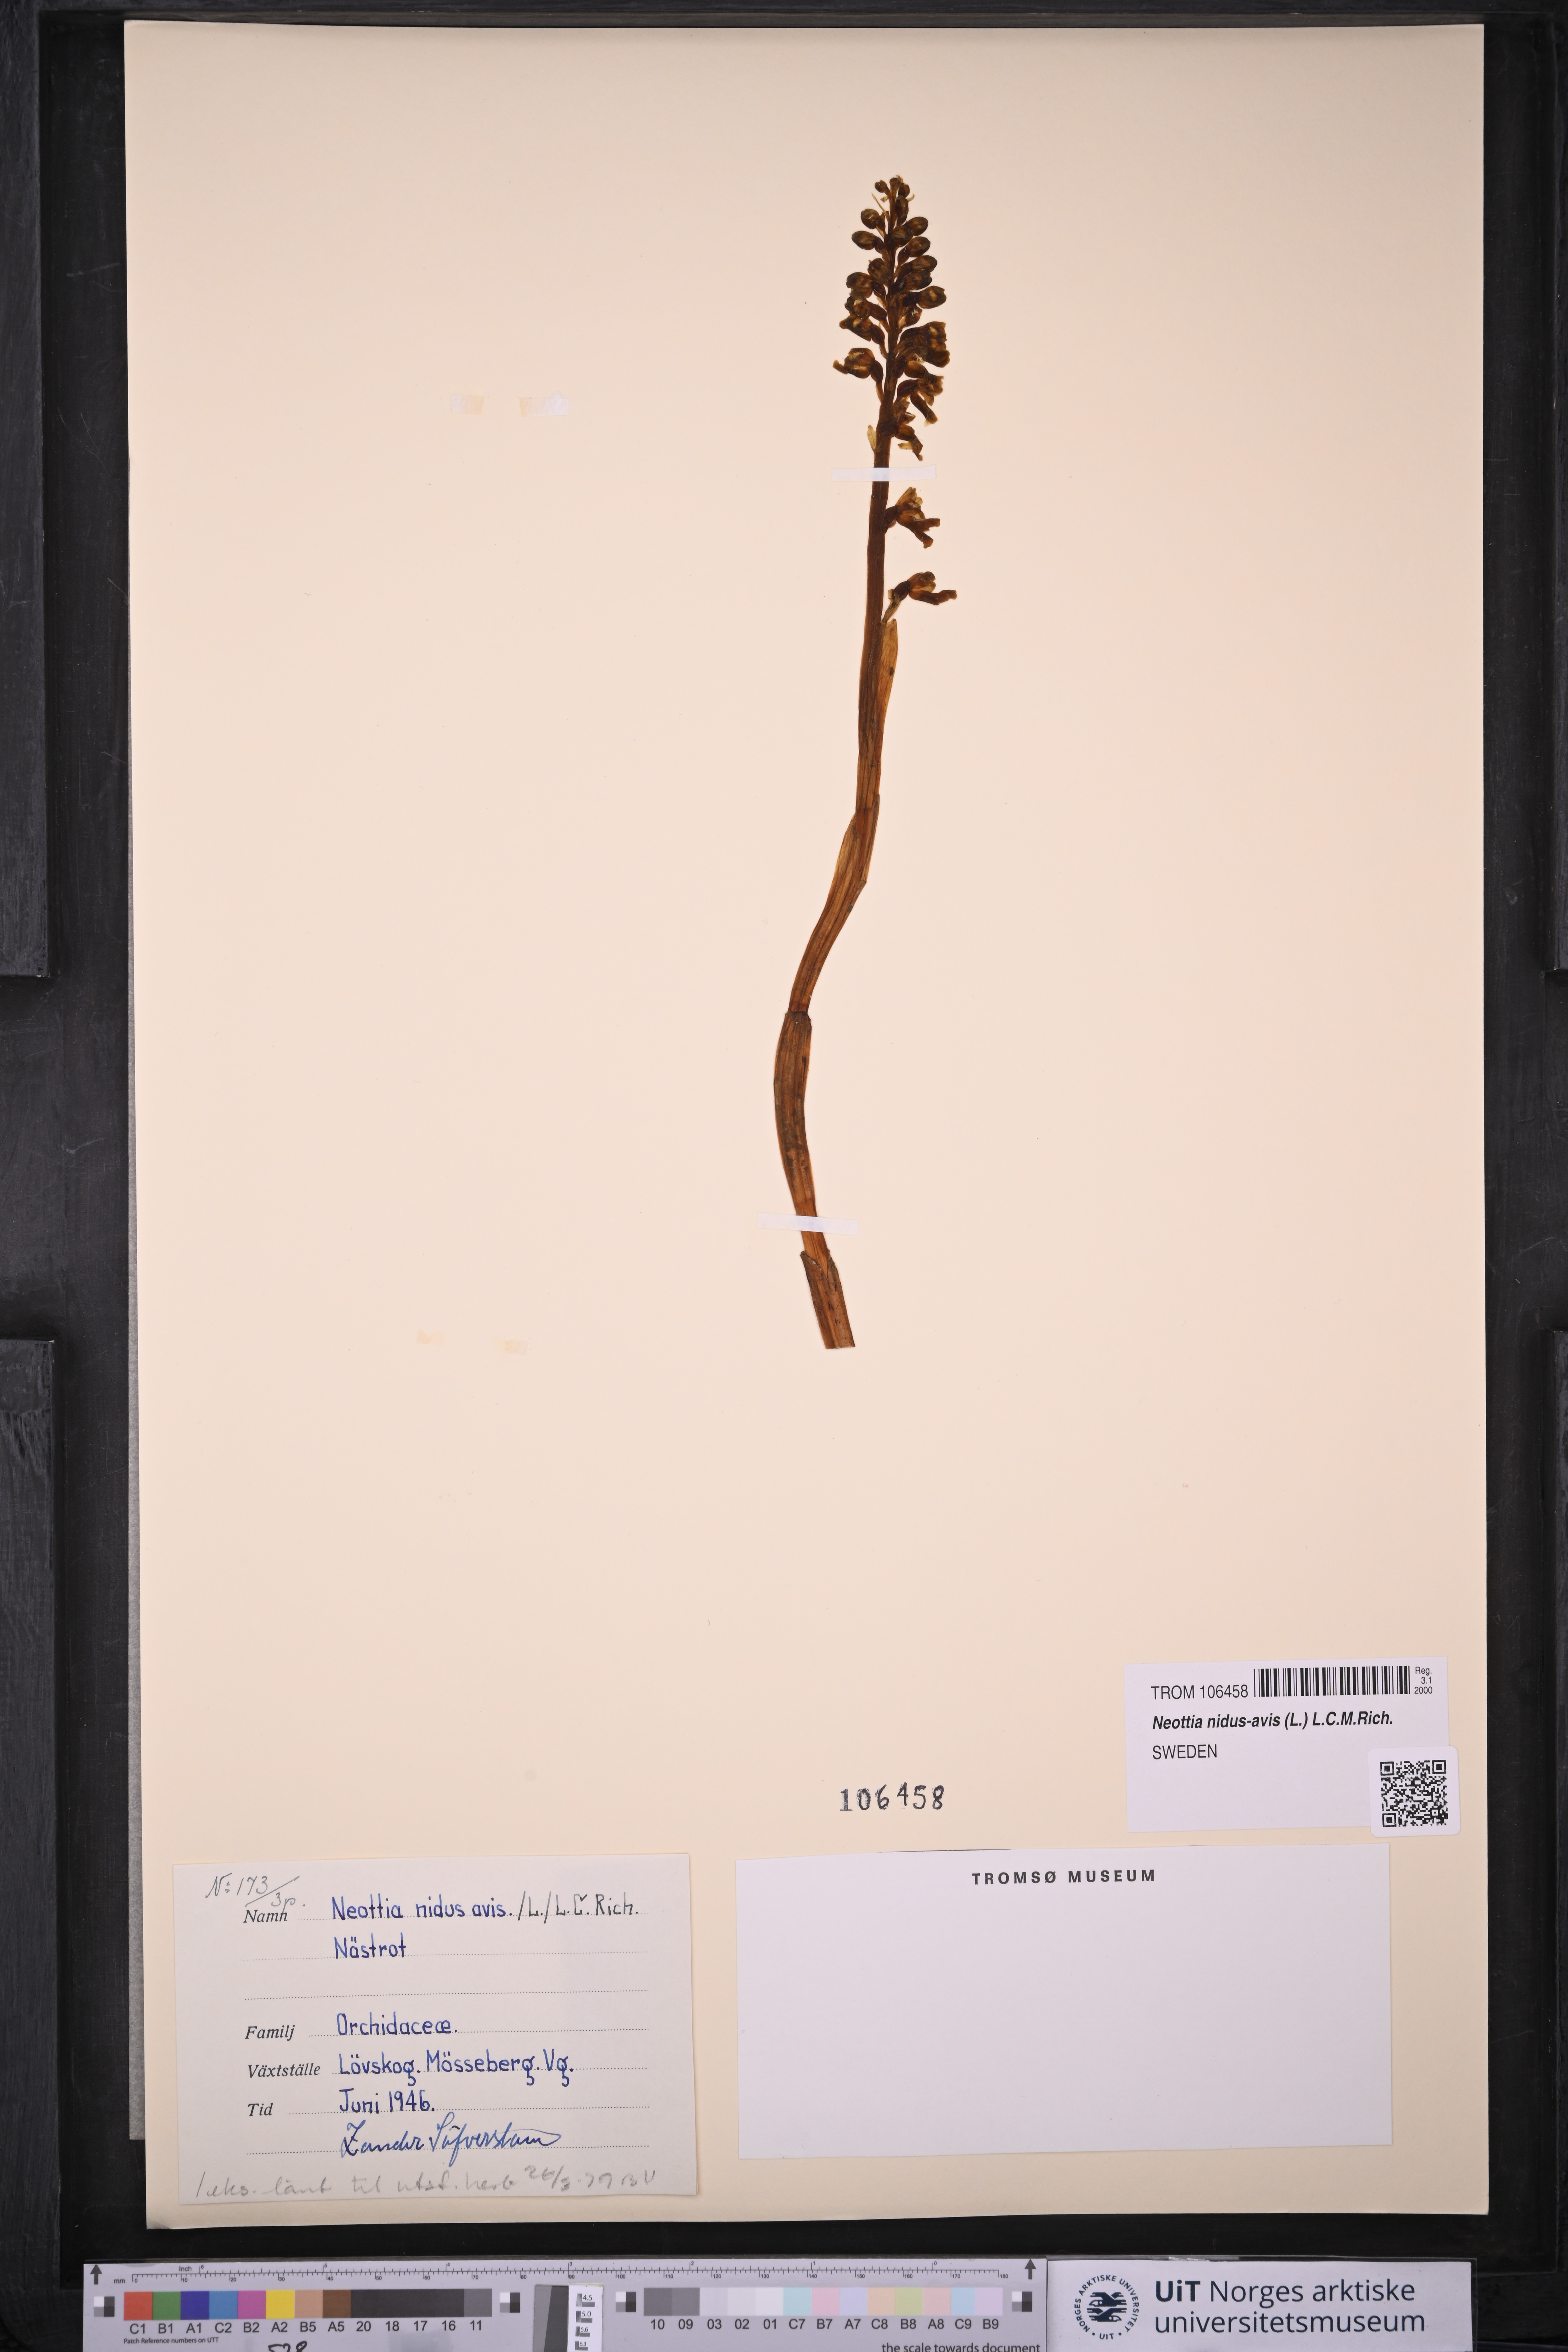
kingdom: Plantae
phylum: Tracheophyta
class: Liliopsida
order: Asparagales
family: Orchidaceae
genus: Neottia
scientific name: Neottia nidus-avis
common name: Bird's-nest orchid
